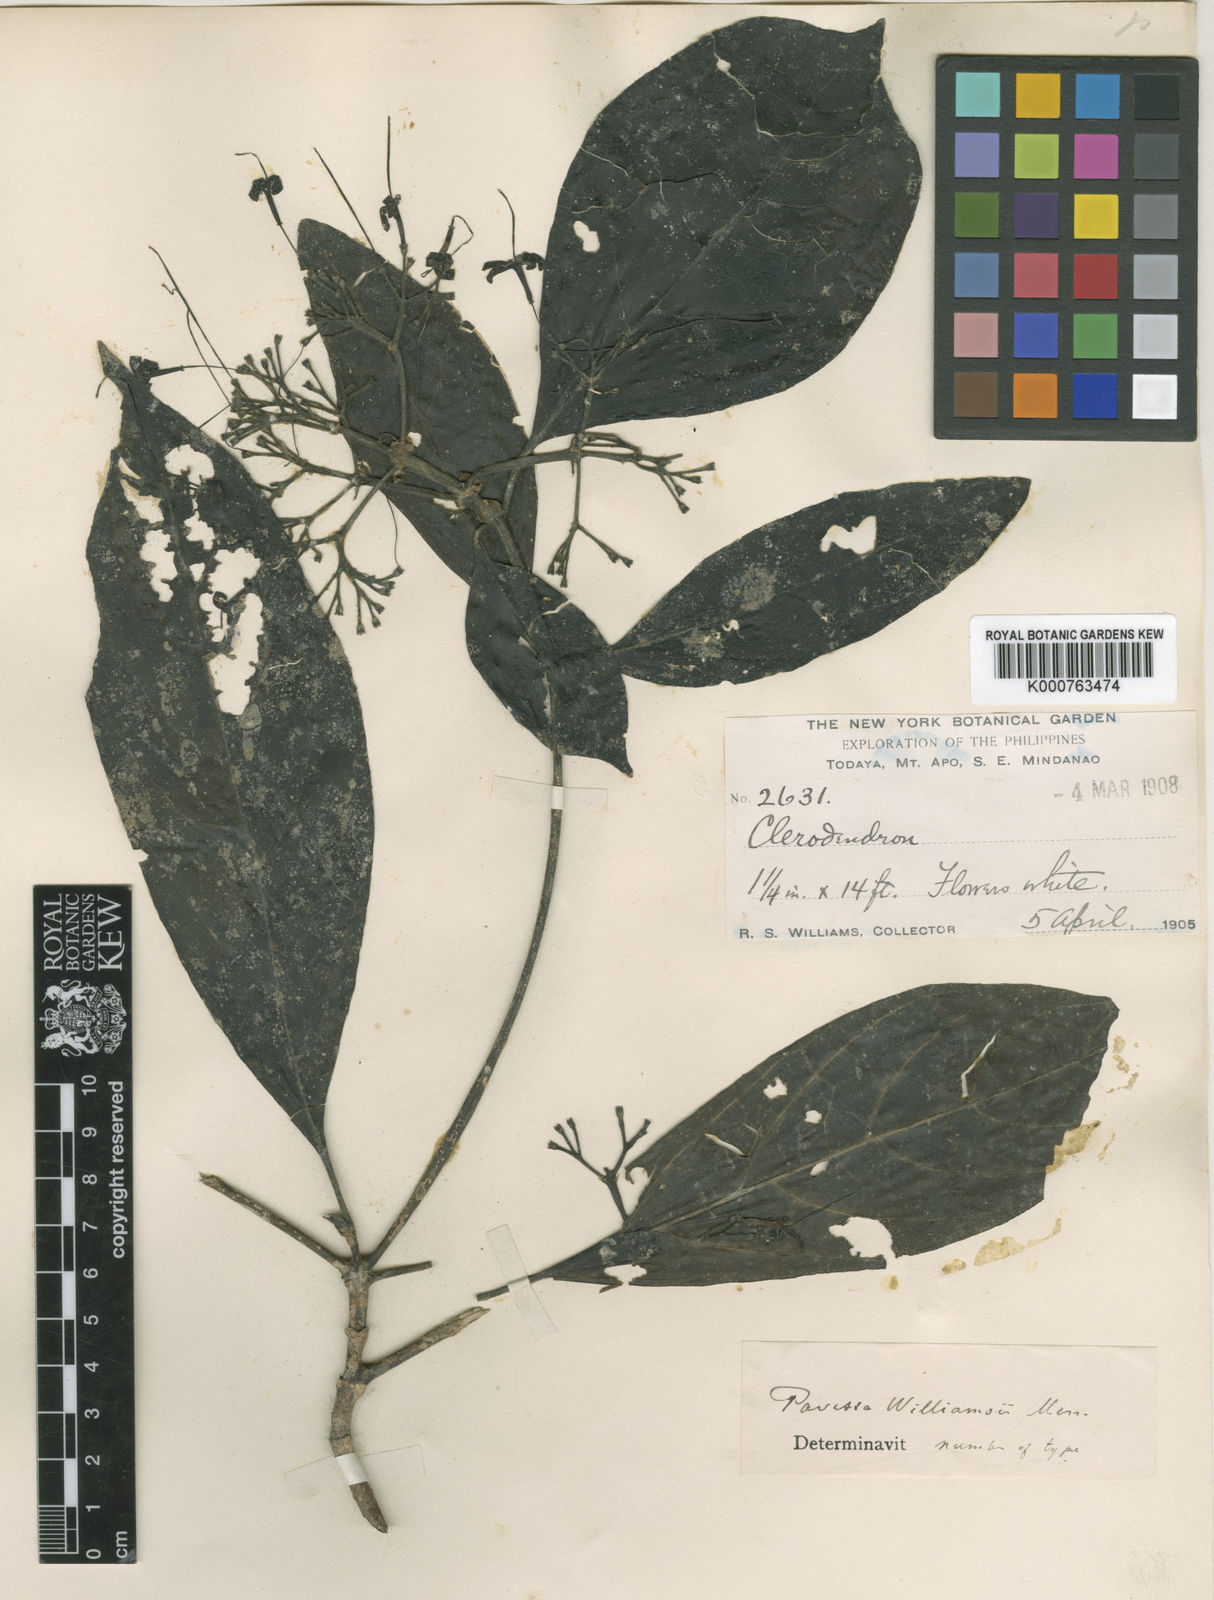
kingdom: Plantae
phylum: Tracheophyta
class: Magnoliopsida
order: Gentianales
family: Rubiaceae
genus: Pavetta
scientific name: Pavetta williamsii
